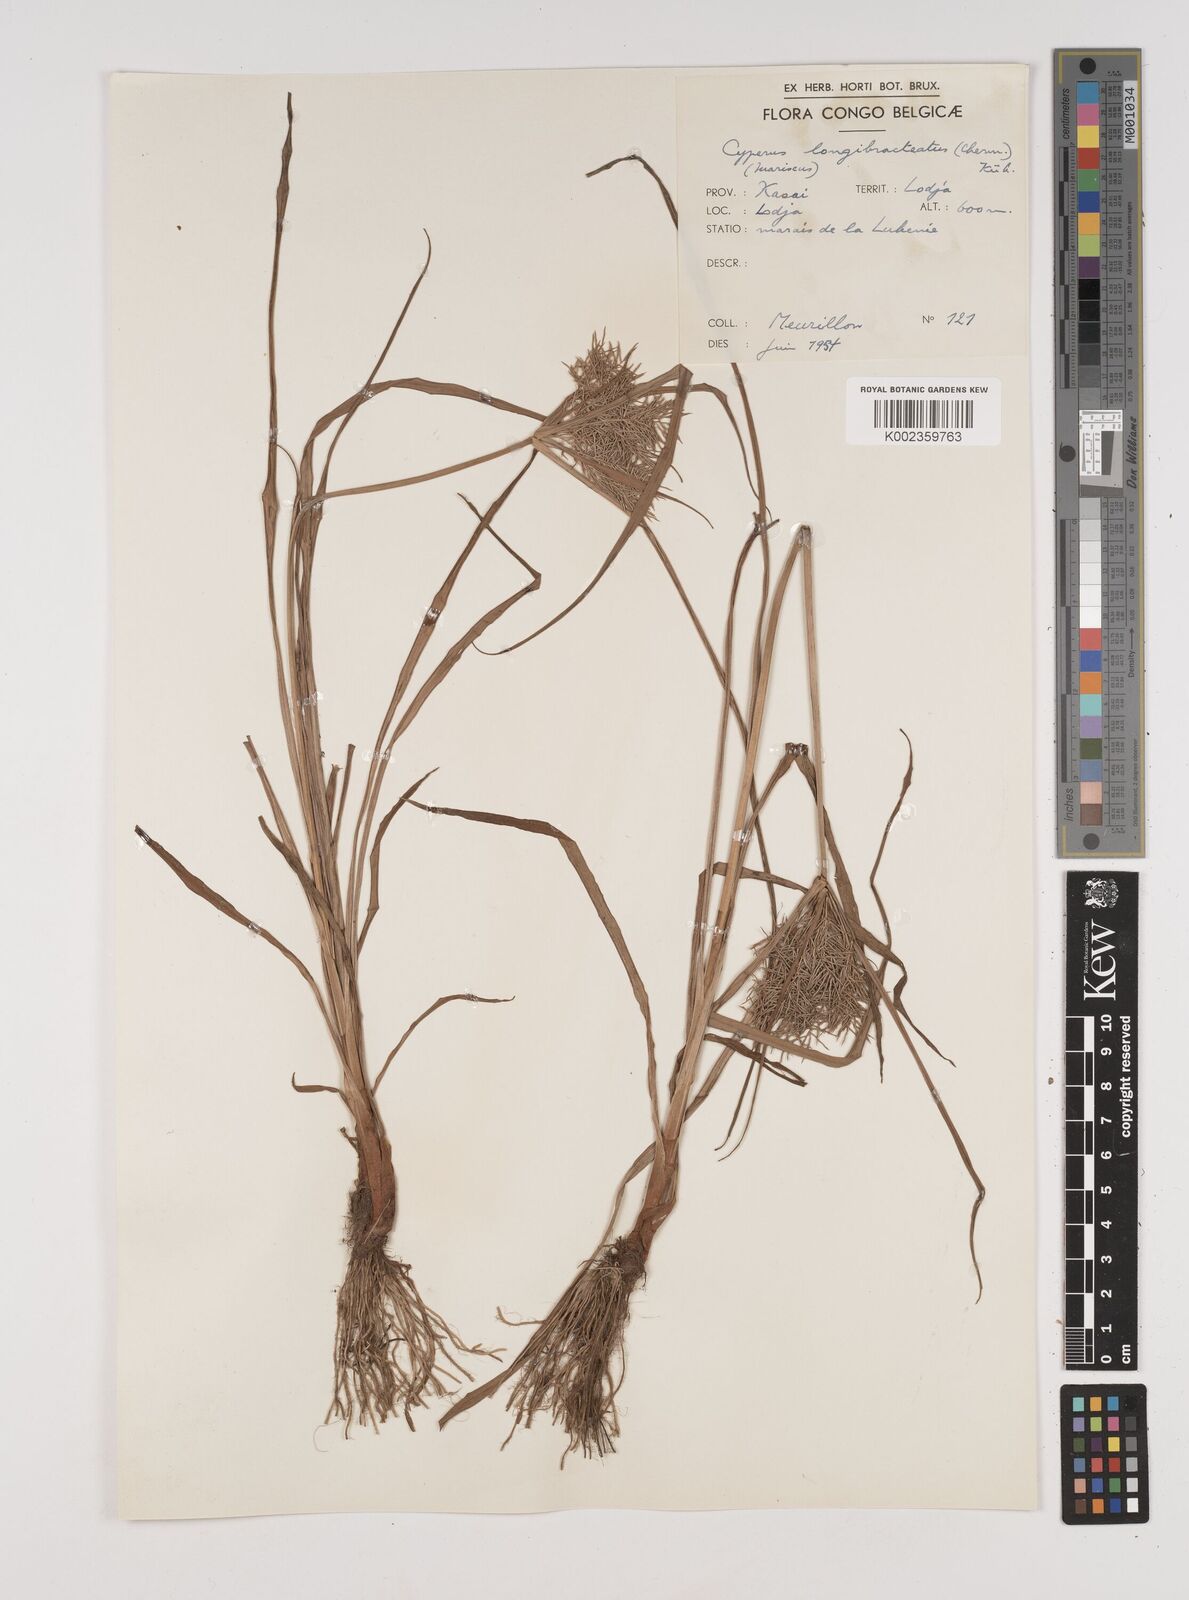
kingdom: Plantae
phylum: Tracheophyta
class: Liliopsida
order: Poales
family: Cyperaceae
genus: Cyperus
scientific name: Cyperus distans
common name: Slender cyperus
